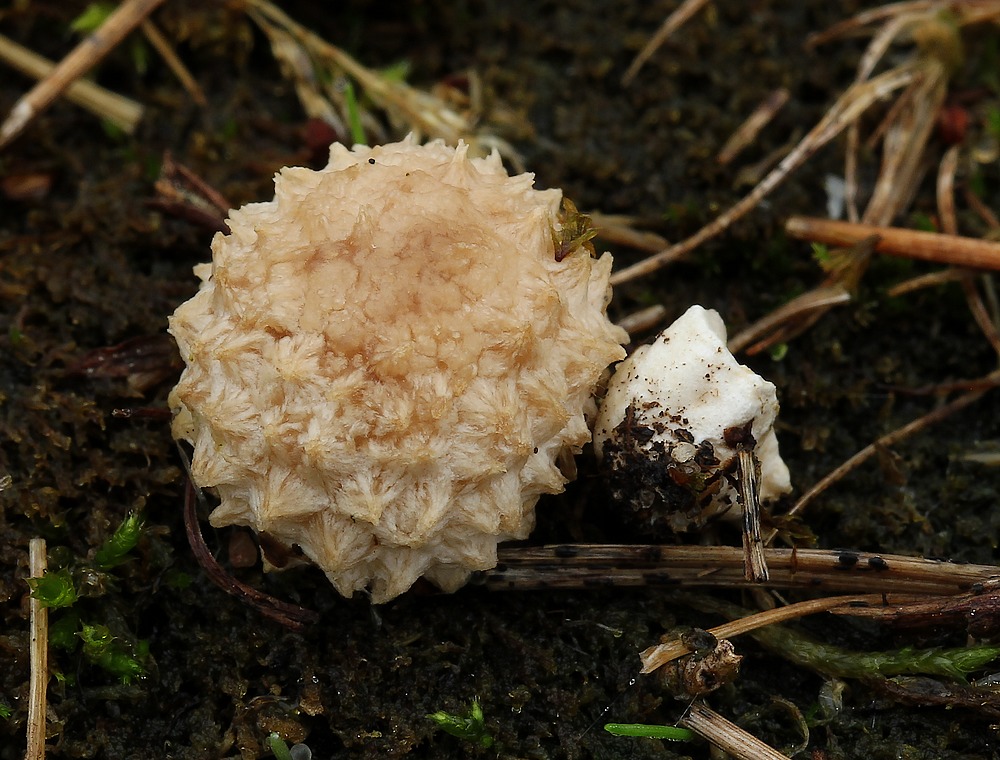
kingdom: Fungi
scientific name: Fungi
